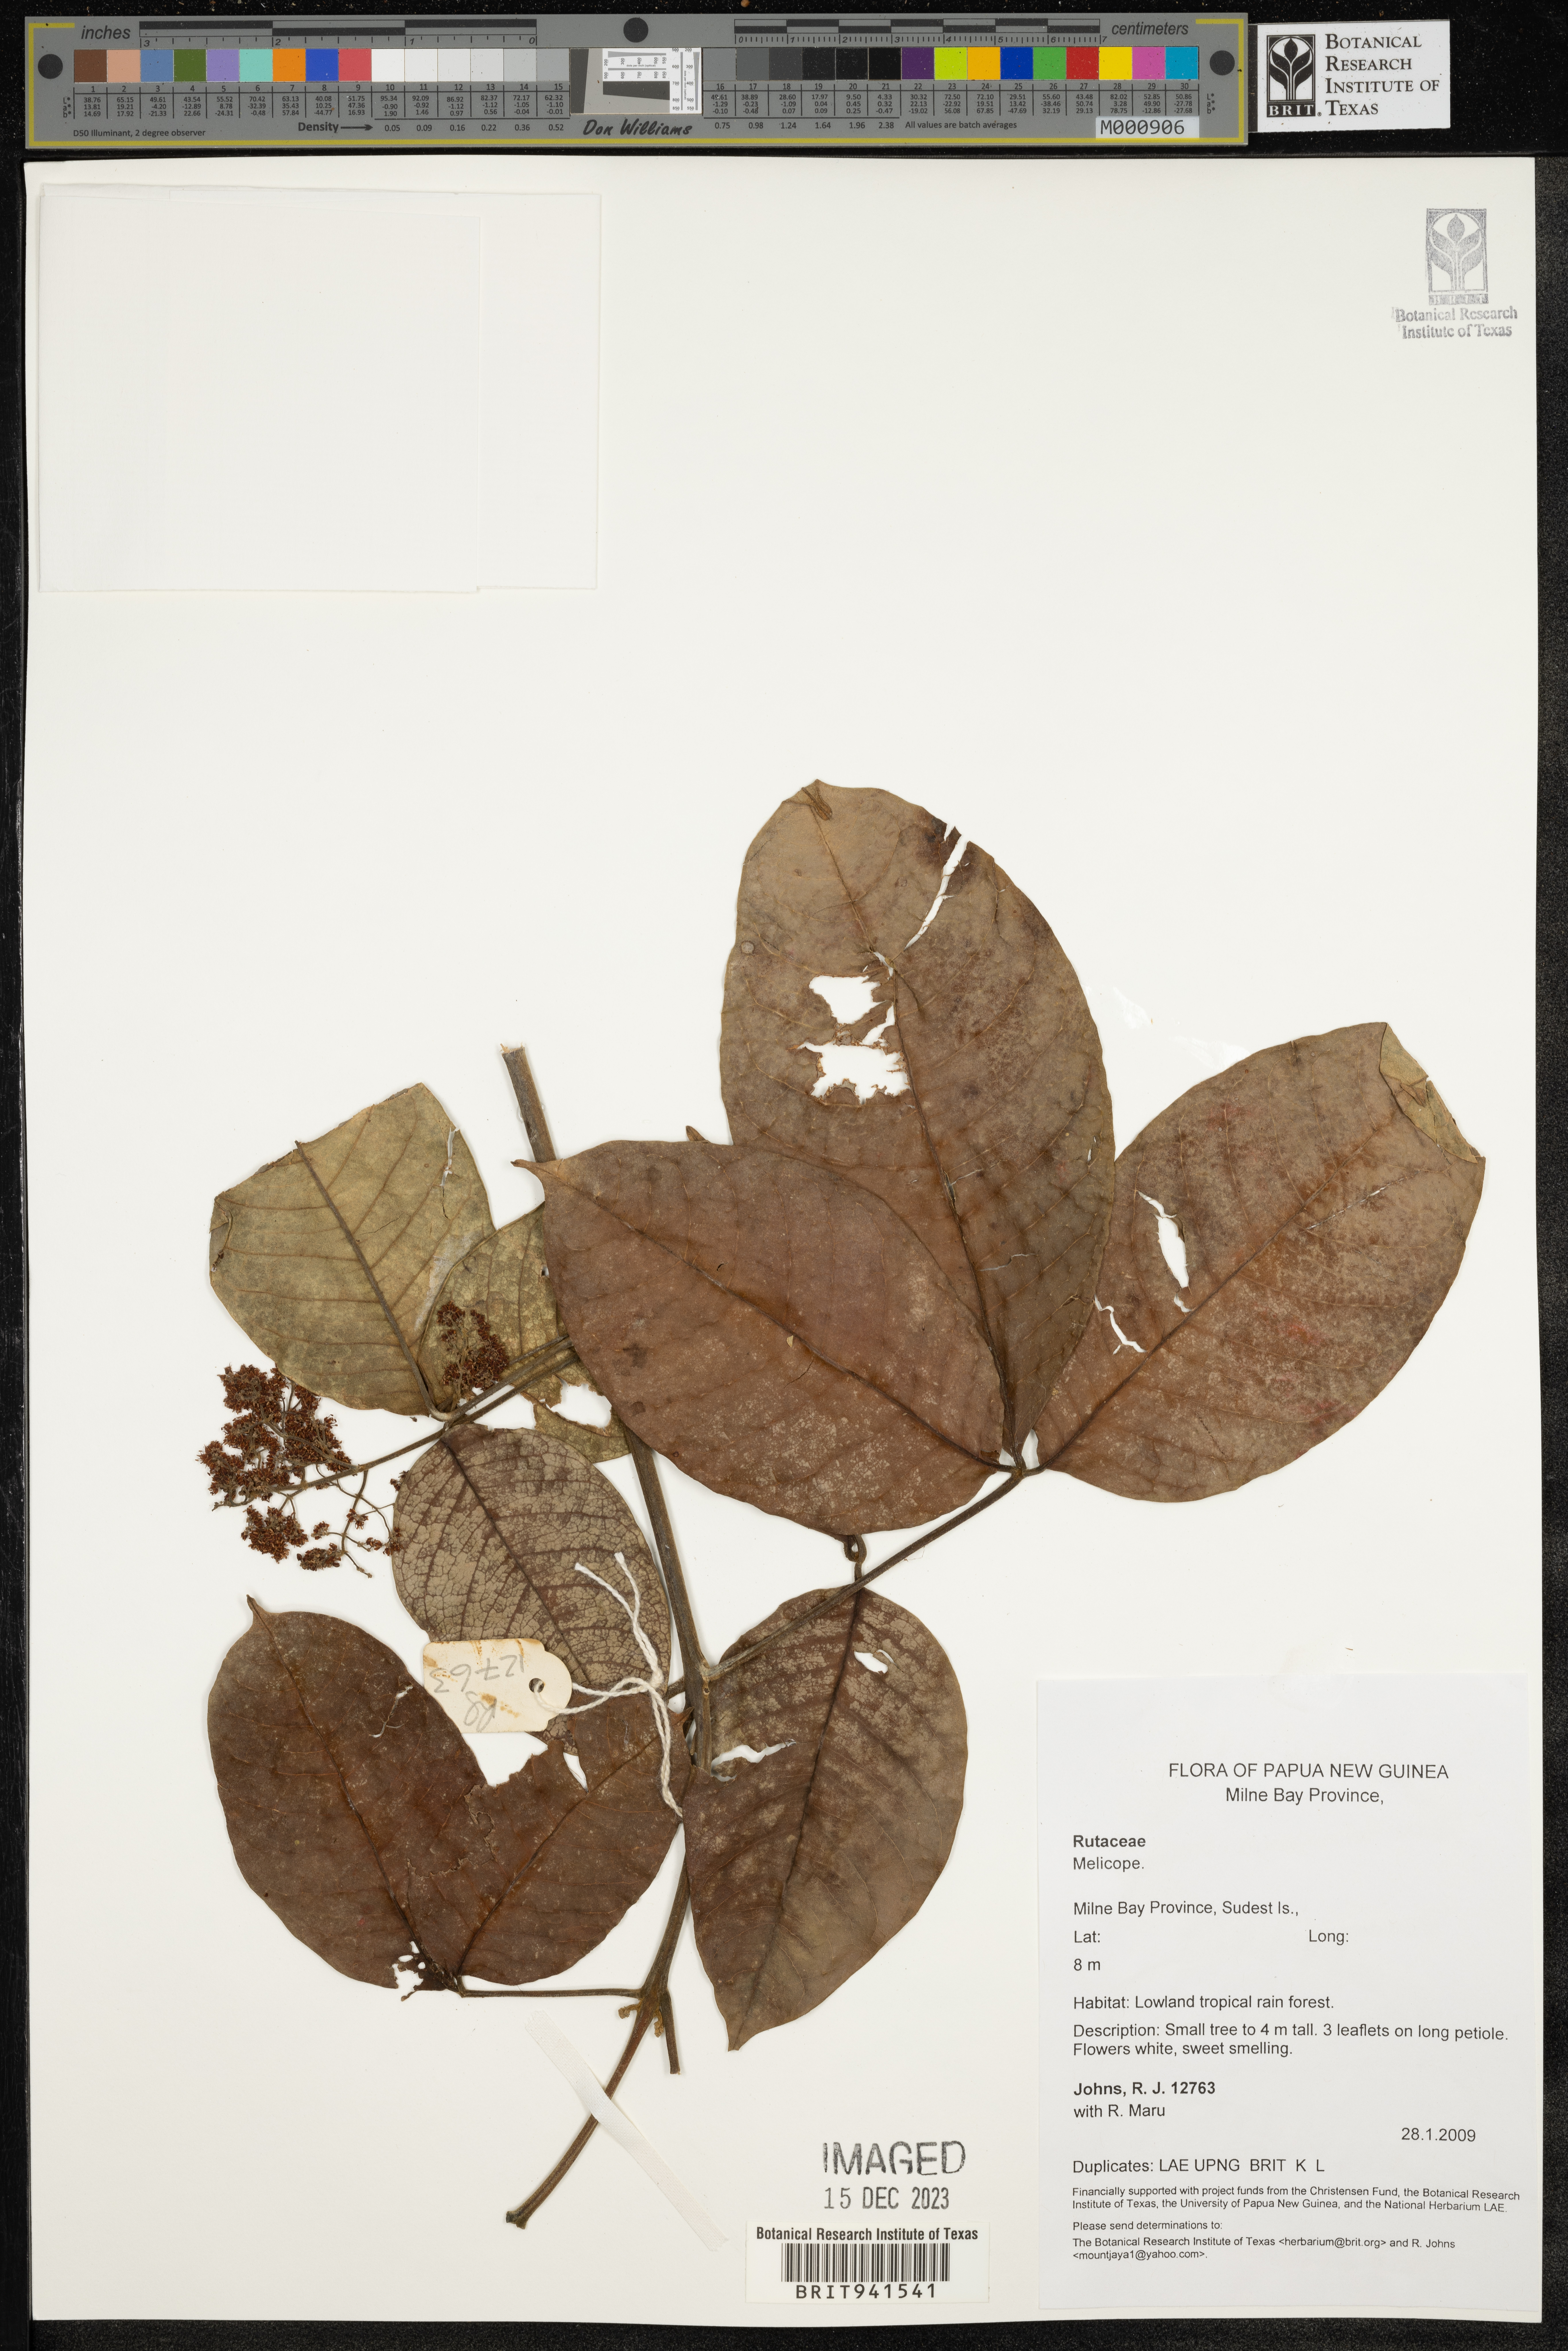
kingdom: Plantae
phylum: Tracheophyta
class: Magnoliopsida
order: Sapindales
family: Rutaceae
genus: Melicope
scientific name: Melicope
